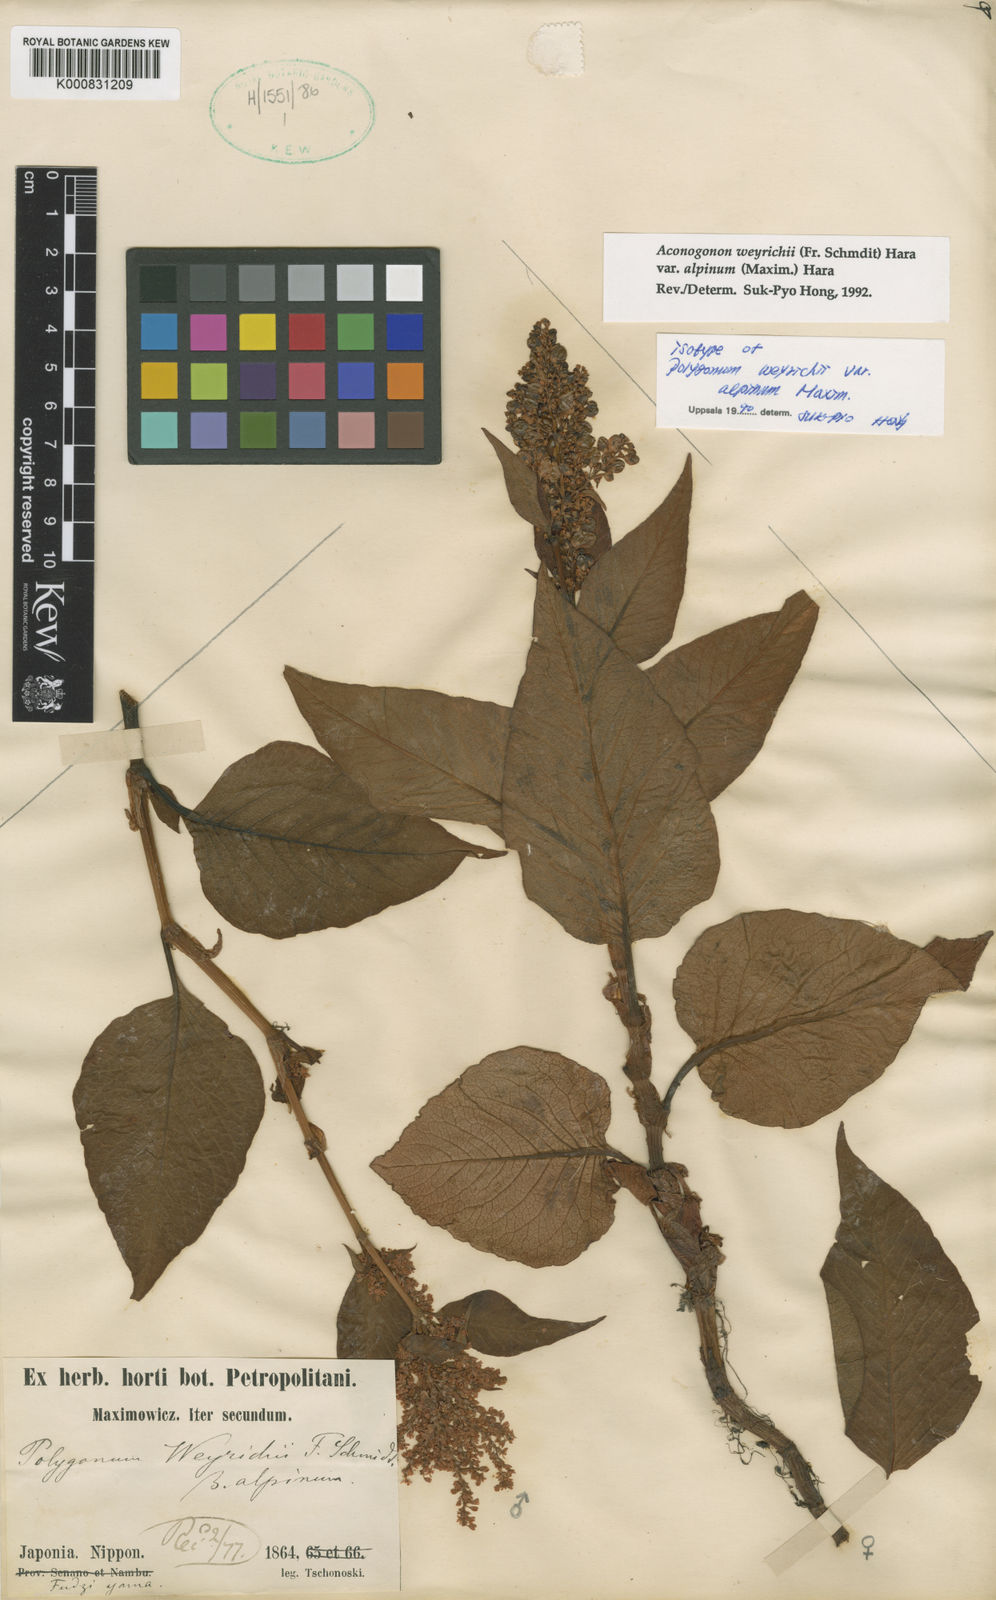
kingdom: Plantae
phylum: Tracheophyta
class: Magnoliopsida
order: Caryophyllales
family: Polygonaceae
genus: Koenigia
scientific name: Koenigia weyrichii
